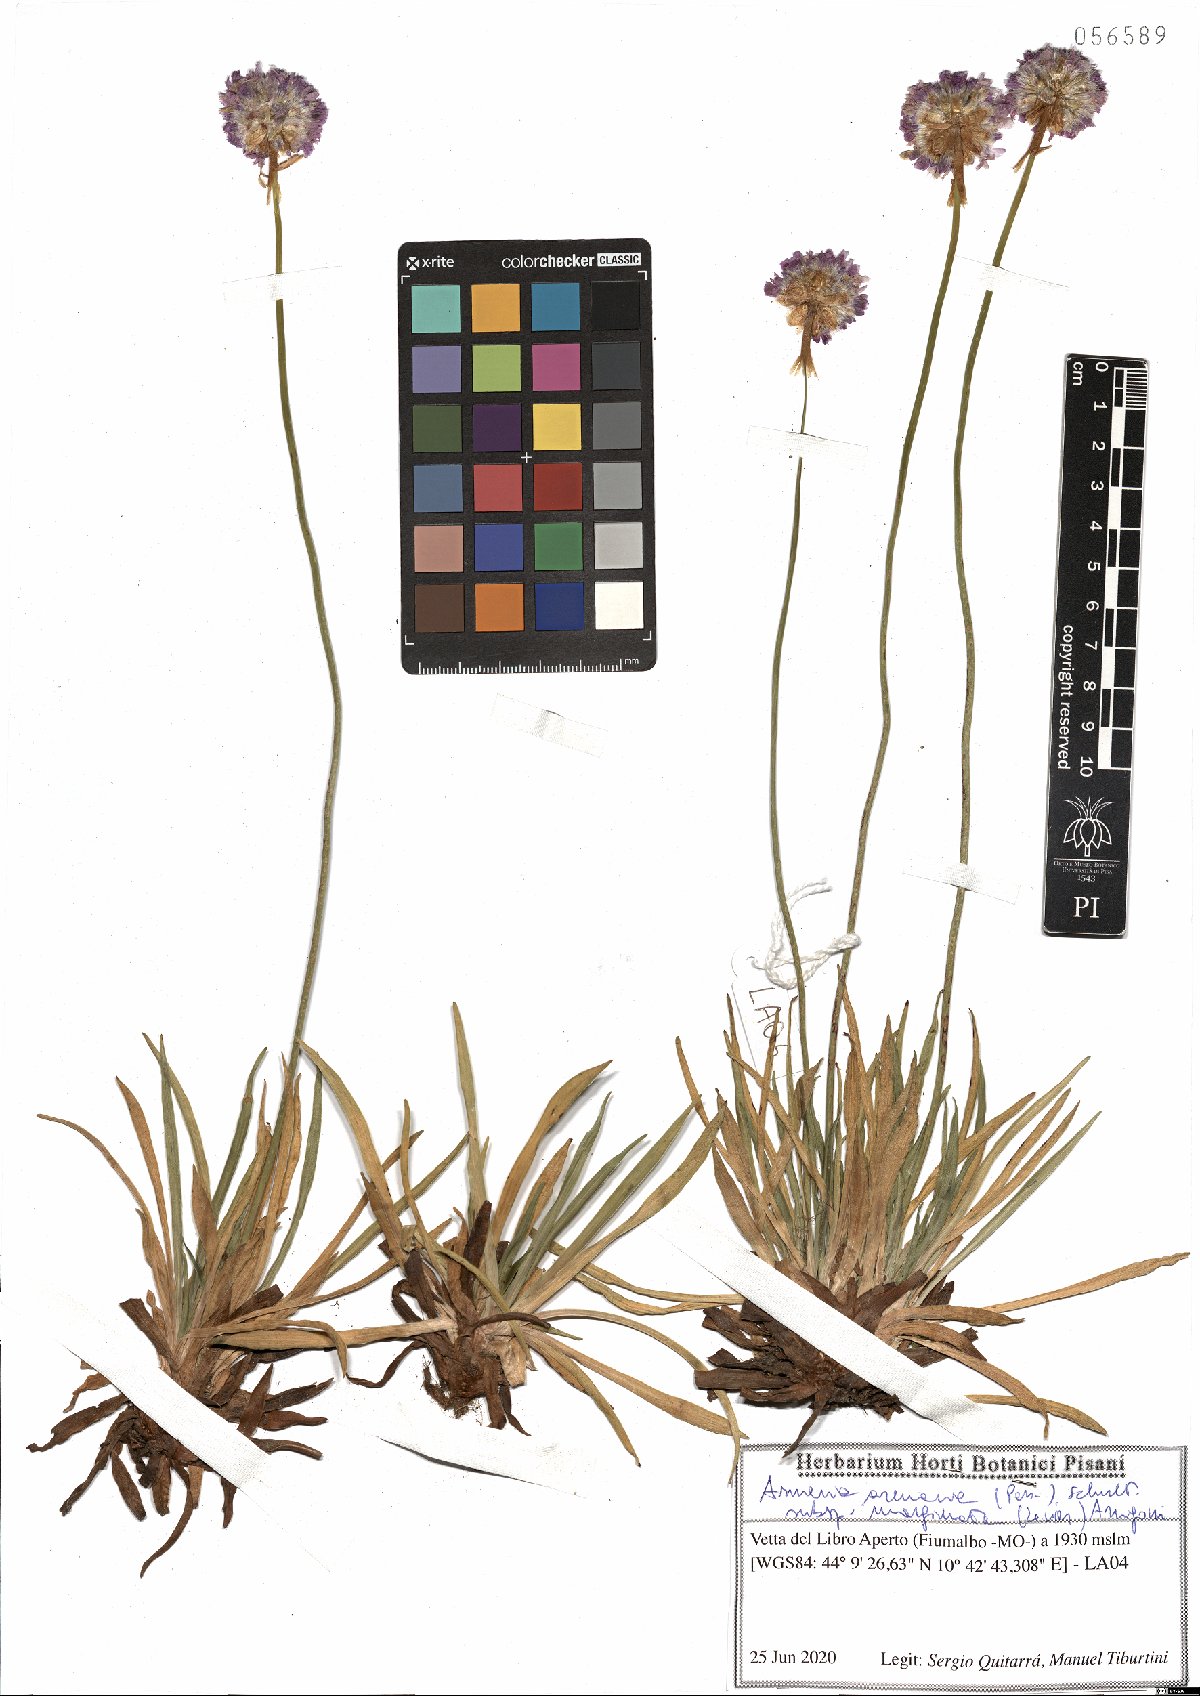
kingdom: Plantae
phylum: Tracheophyta
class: Magnoliopsida
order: Caryophyllales
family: Plumbaginaceae
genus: Armeria
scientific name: Armeria arenaria
